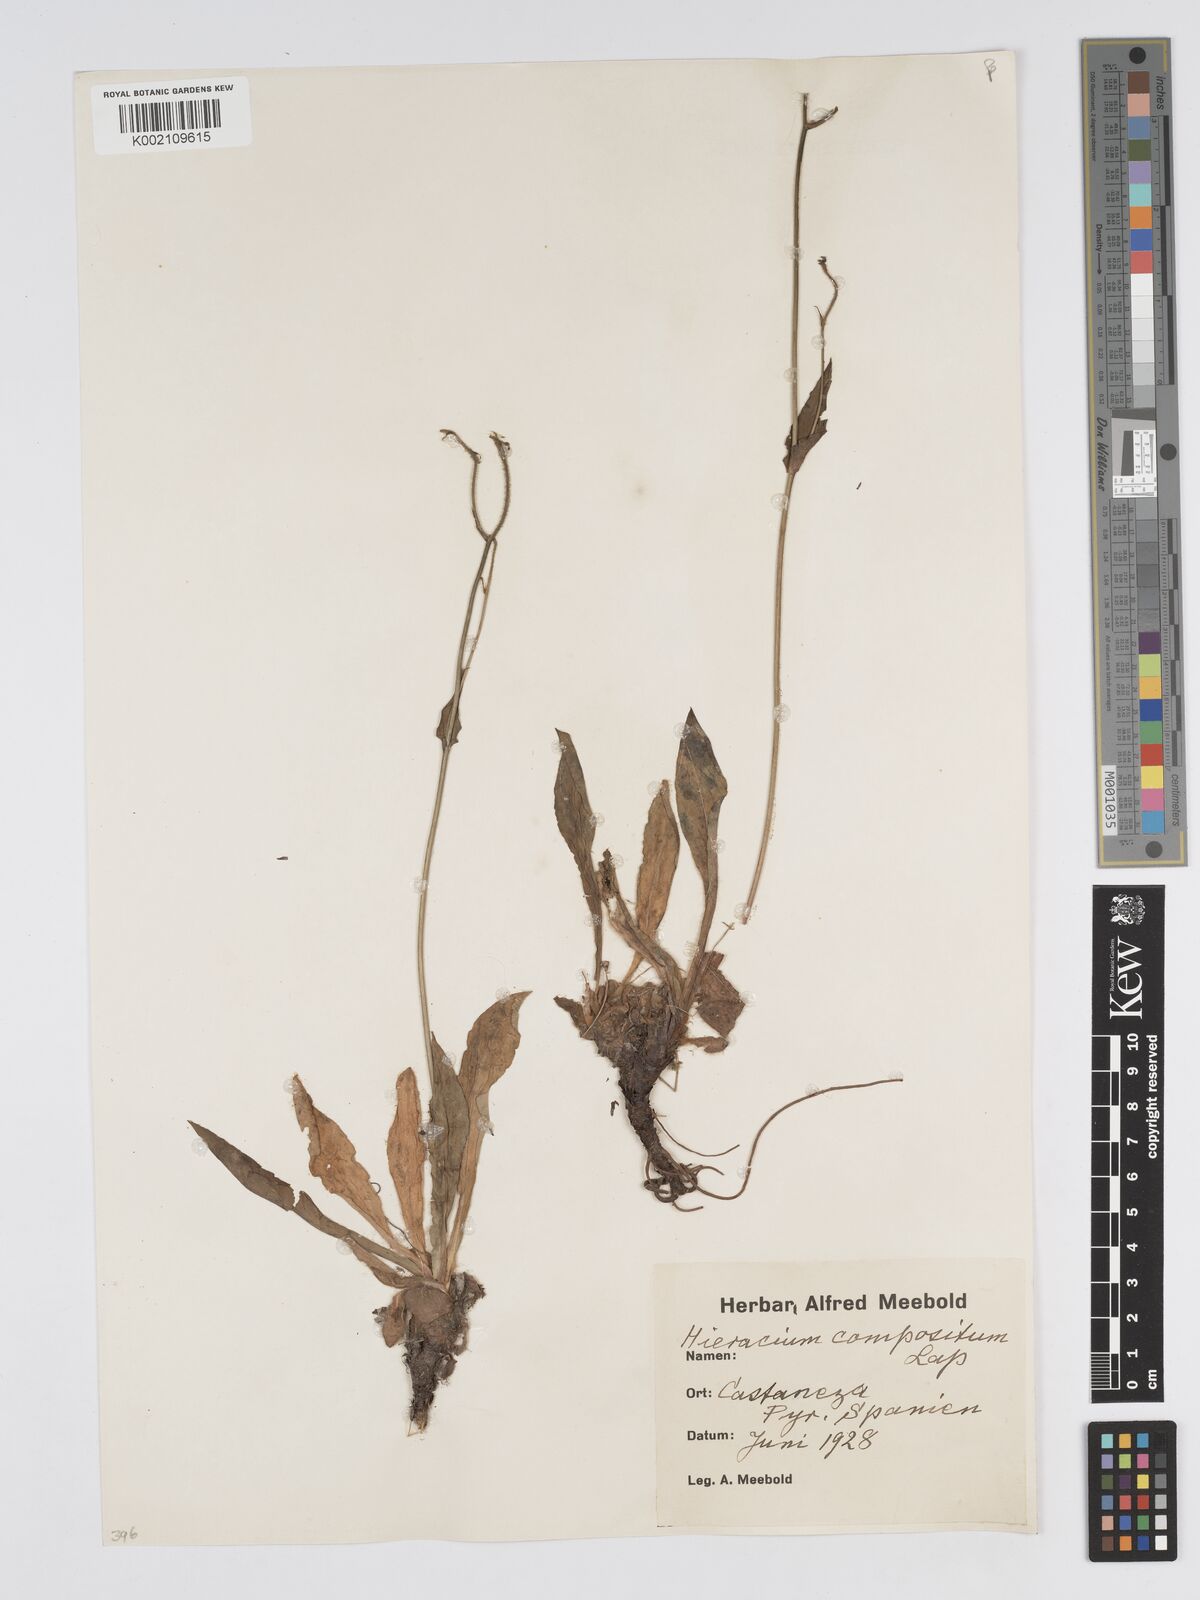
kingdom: Plantae
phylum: Tracheophyta
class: Magnoliopsida
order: Asterales
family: Asteraceae
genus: Hieracium
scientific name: Hieracium compositum
